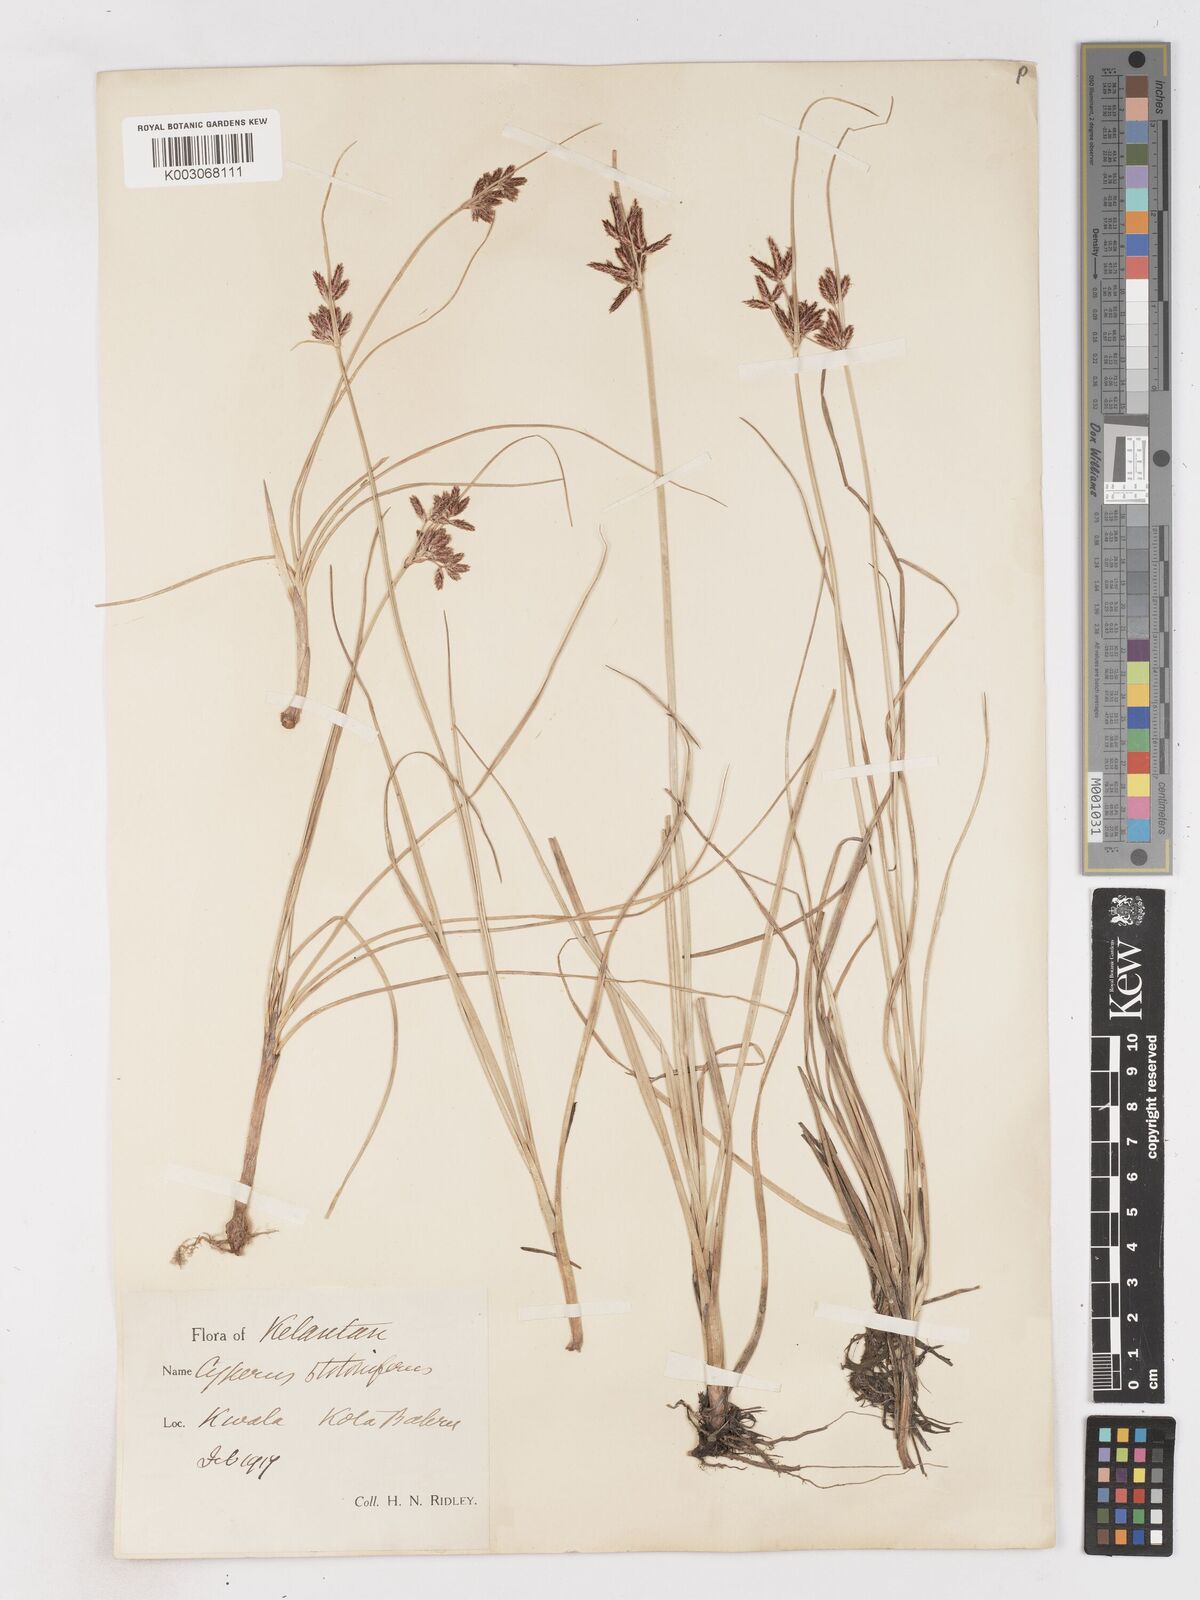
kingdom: Plantae
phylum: Tracheophyta
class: Liliopsida
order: Poales
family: Cyperaceae
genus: Cyperus
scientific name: Cyperus bulbosus
